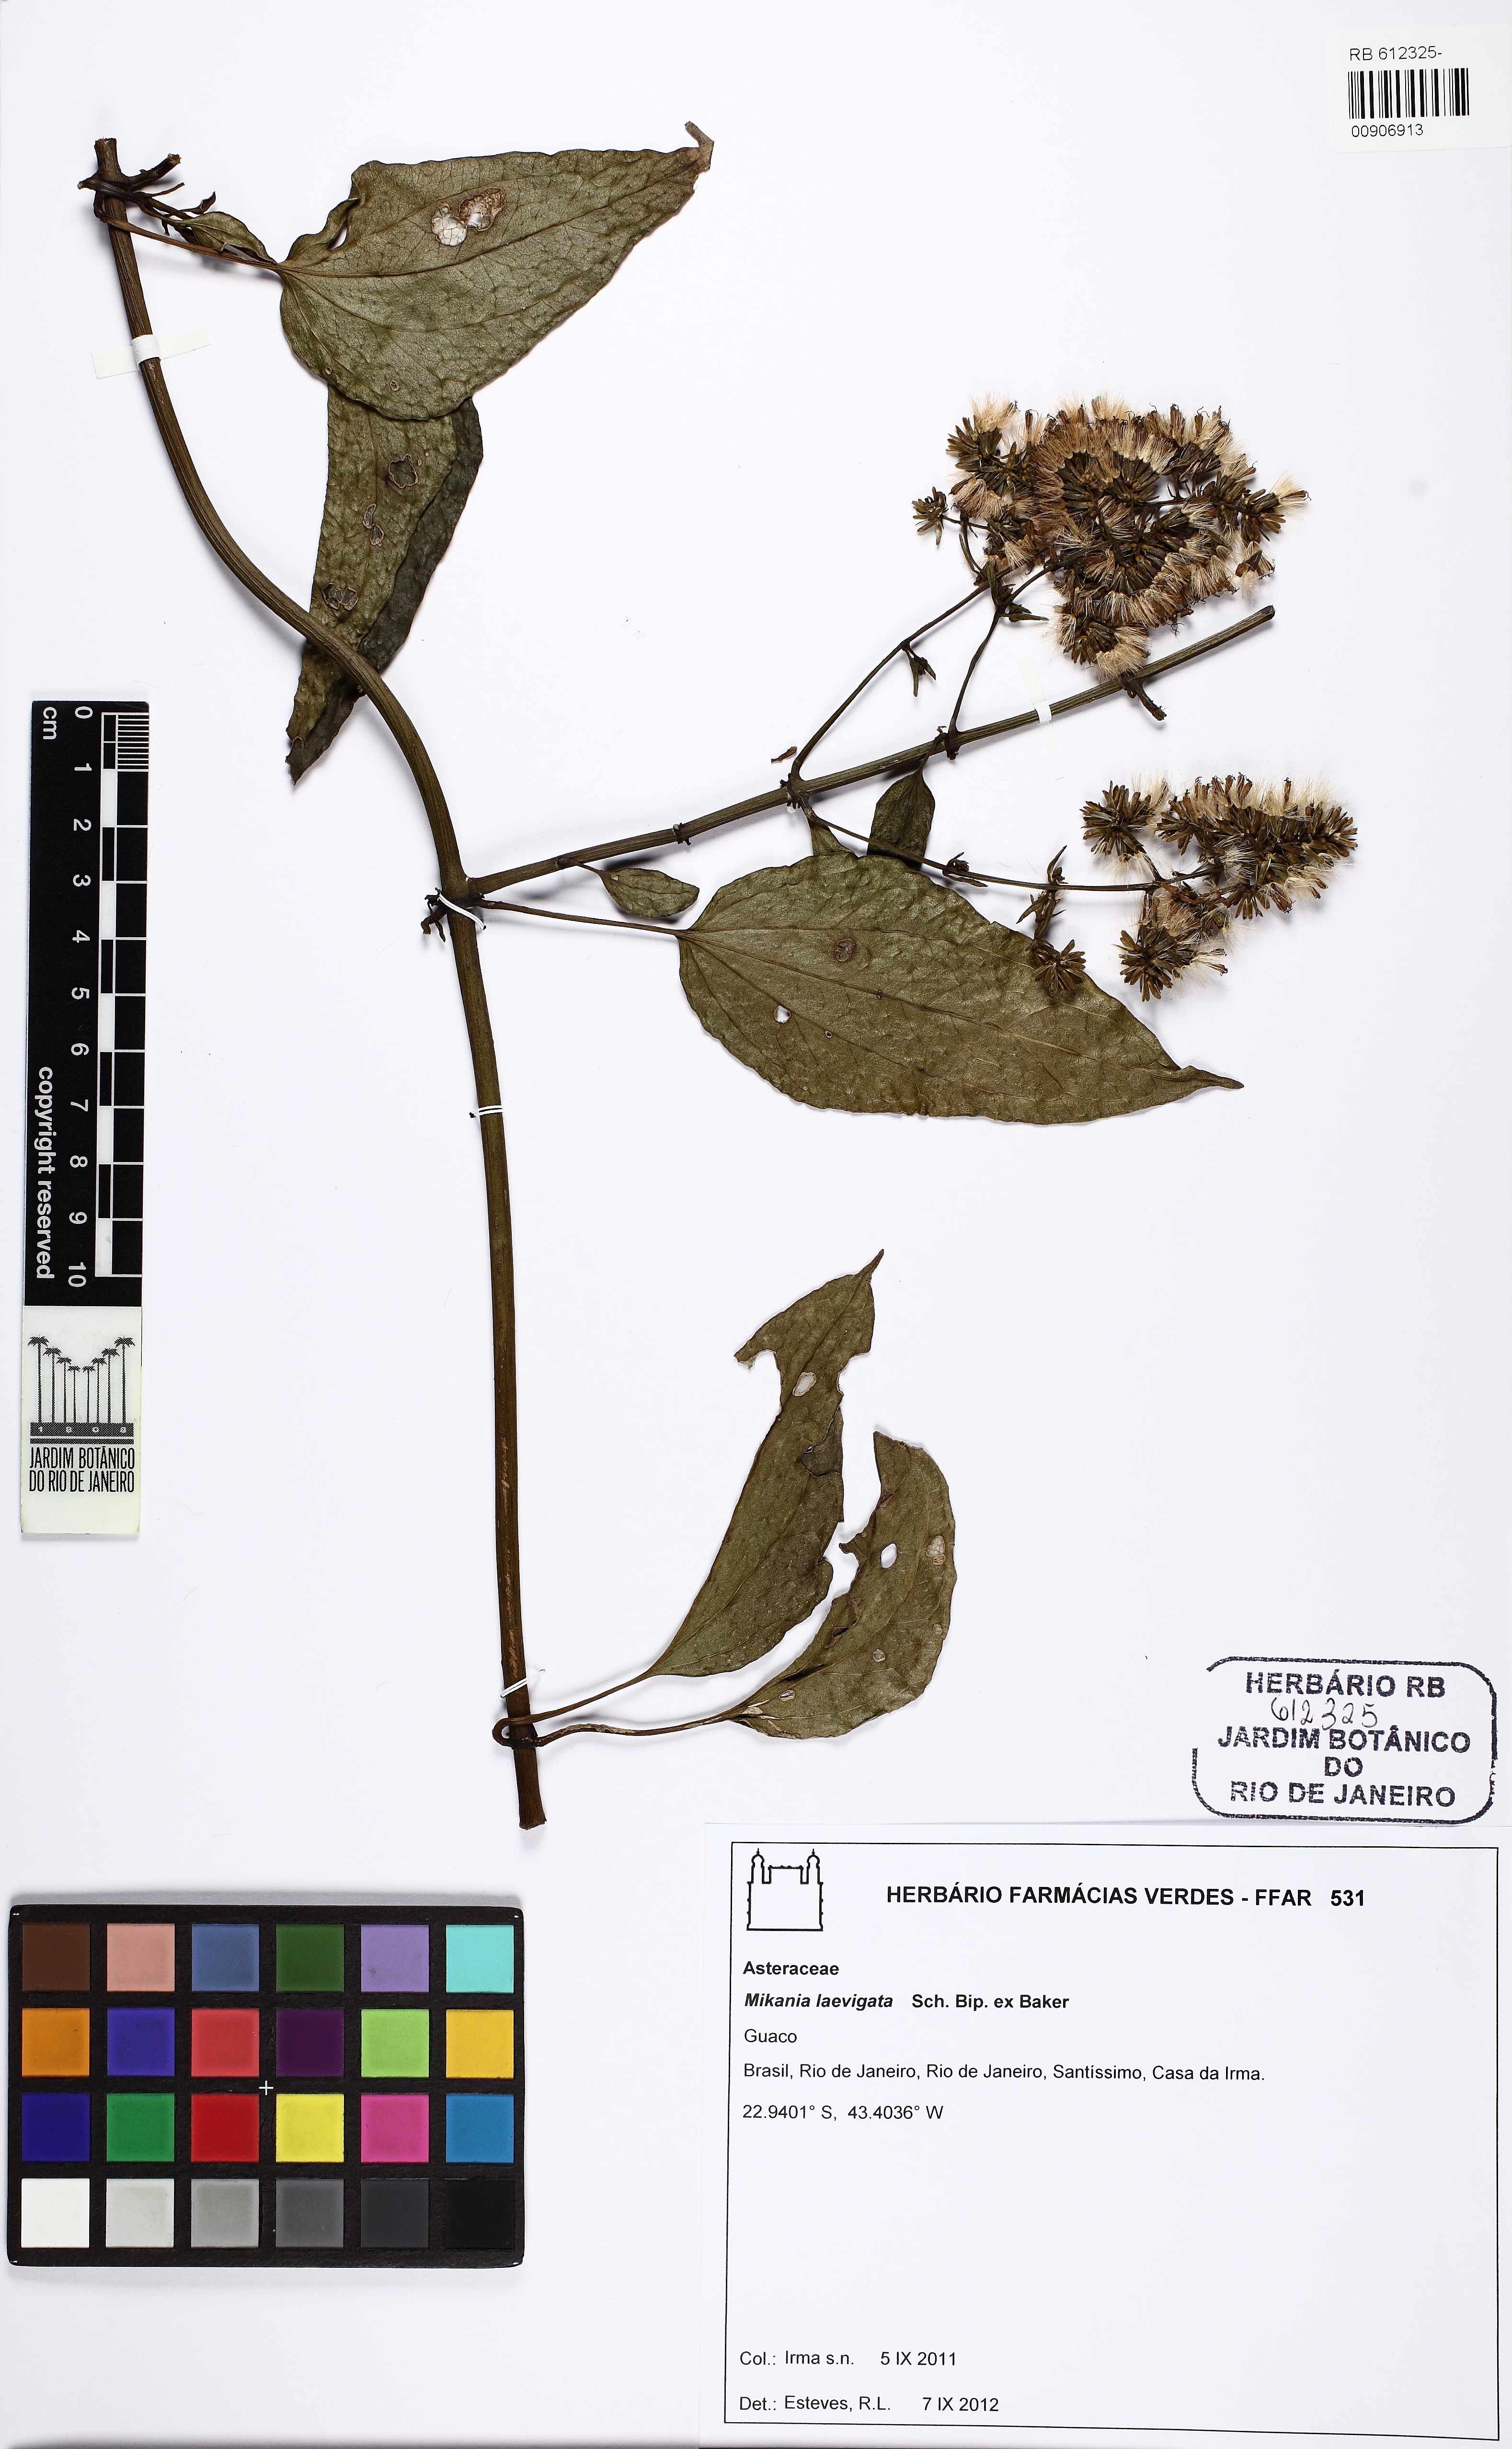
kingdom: Plantae
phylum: Tracheophyta
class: Magnoliopsida
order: Asterales
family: Asteraceae
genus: Mikania
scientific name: Mikania laevigata
